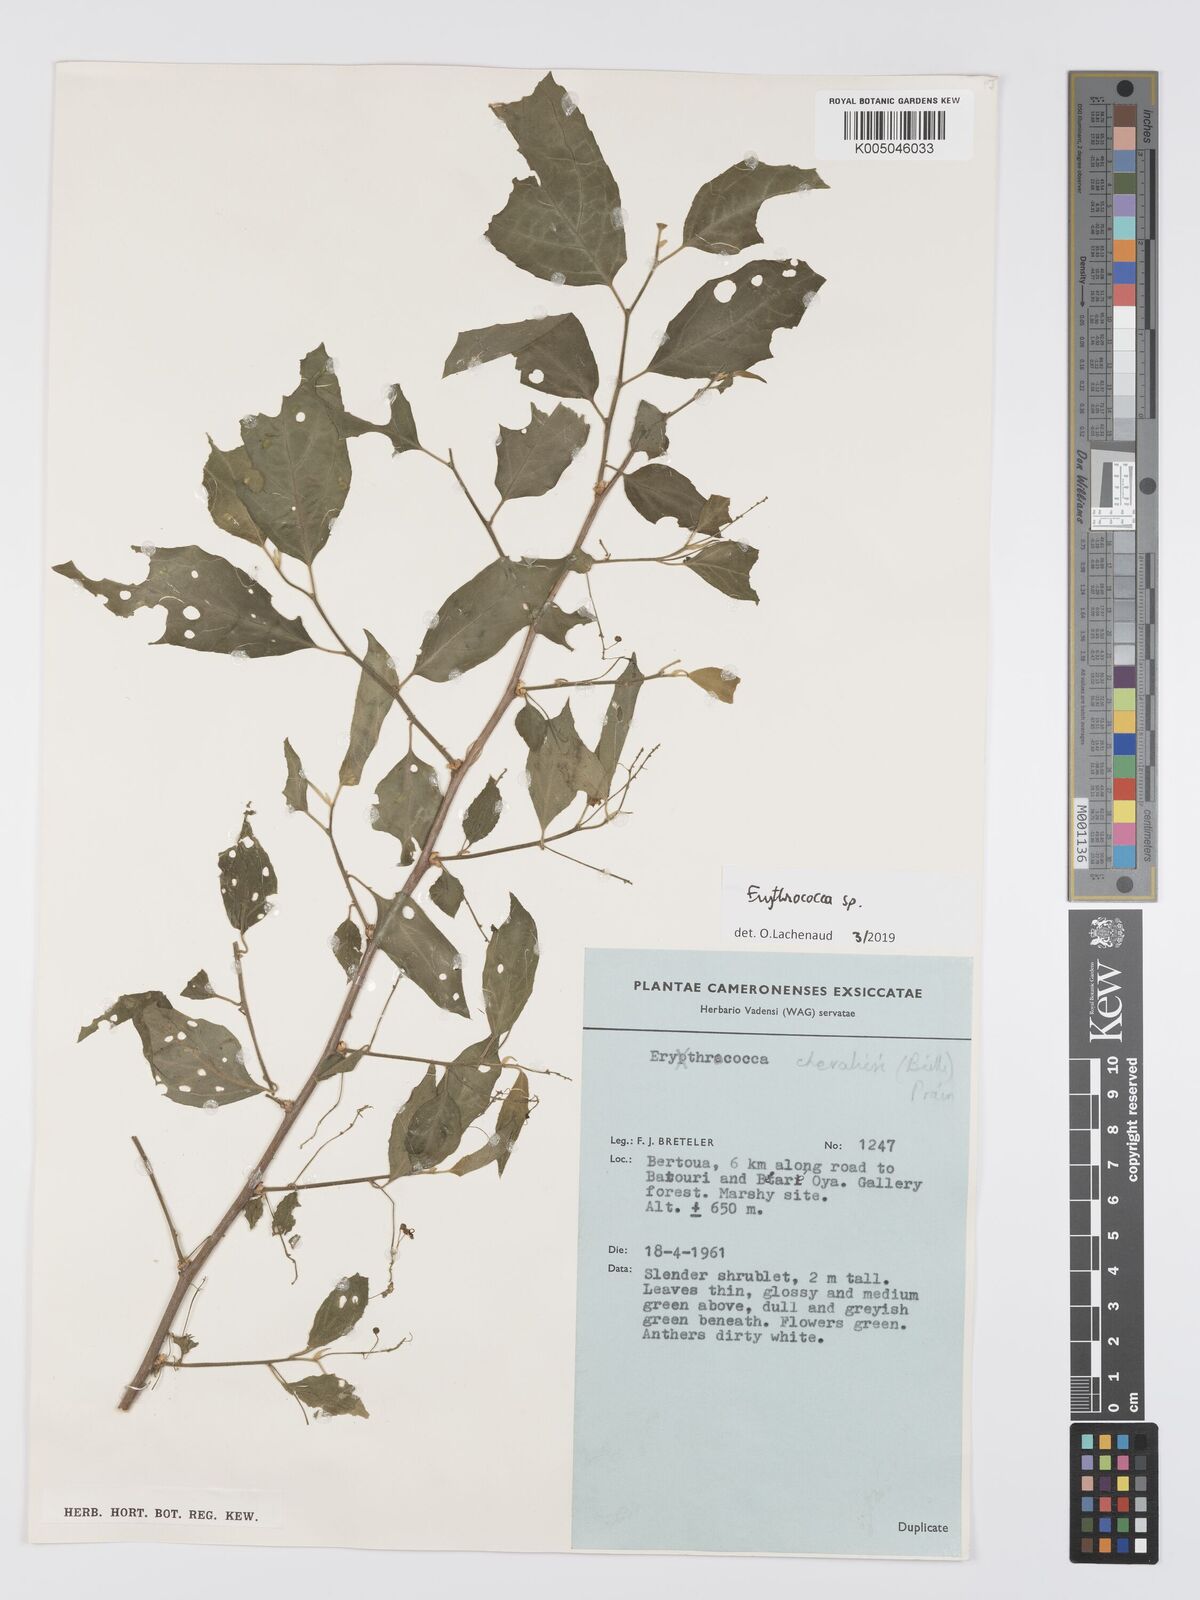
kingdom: Plantae
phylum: Tracheophyta
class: Magnoliopsida
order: Malpighiales
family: Euphorbiaceae
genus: Erythrococca
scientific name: Erythrococca
